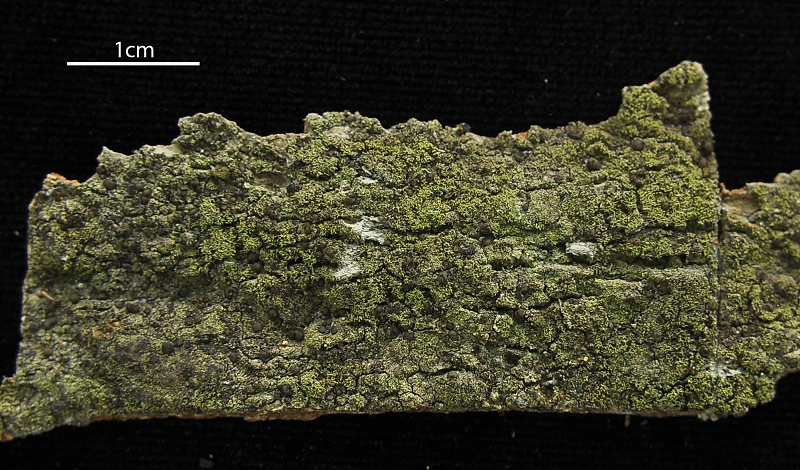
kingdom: Fungi
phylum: Ascomycota
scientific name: Ascomycota
